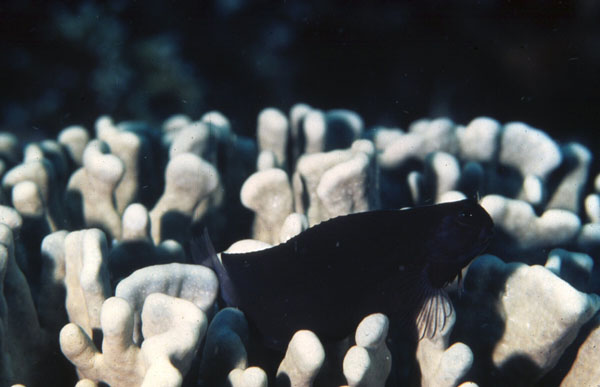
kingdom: Animalia
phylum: Chordata
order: Perciformes
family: Blenniidae
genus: Ecsenius
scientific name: Ecsenius namiyei
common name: Black comb-tooth
